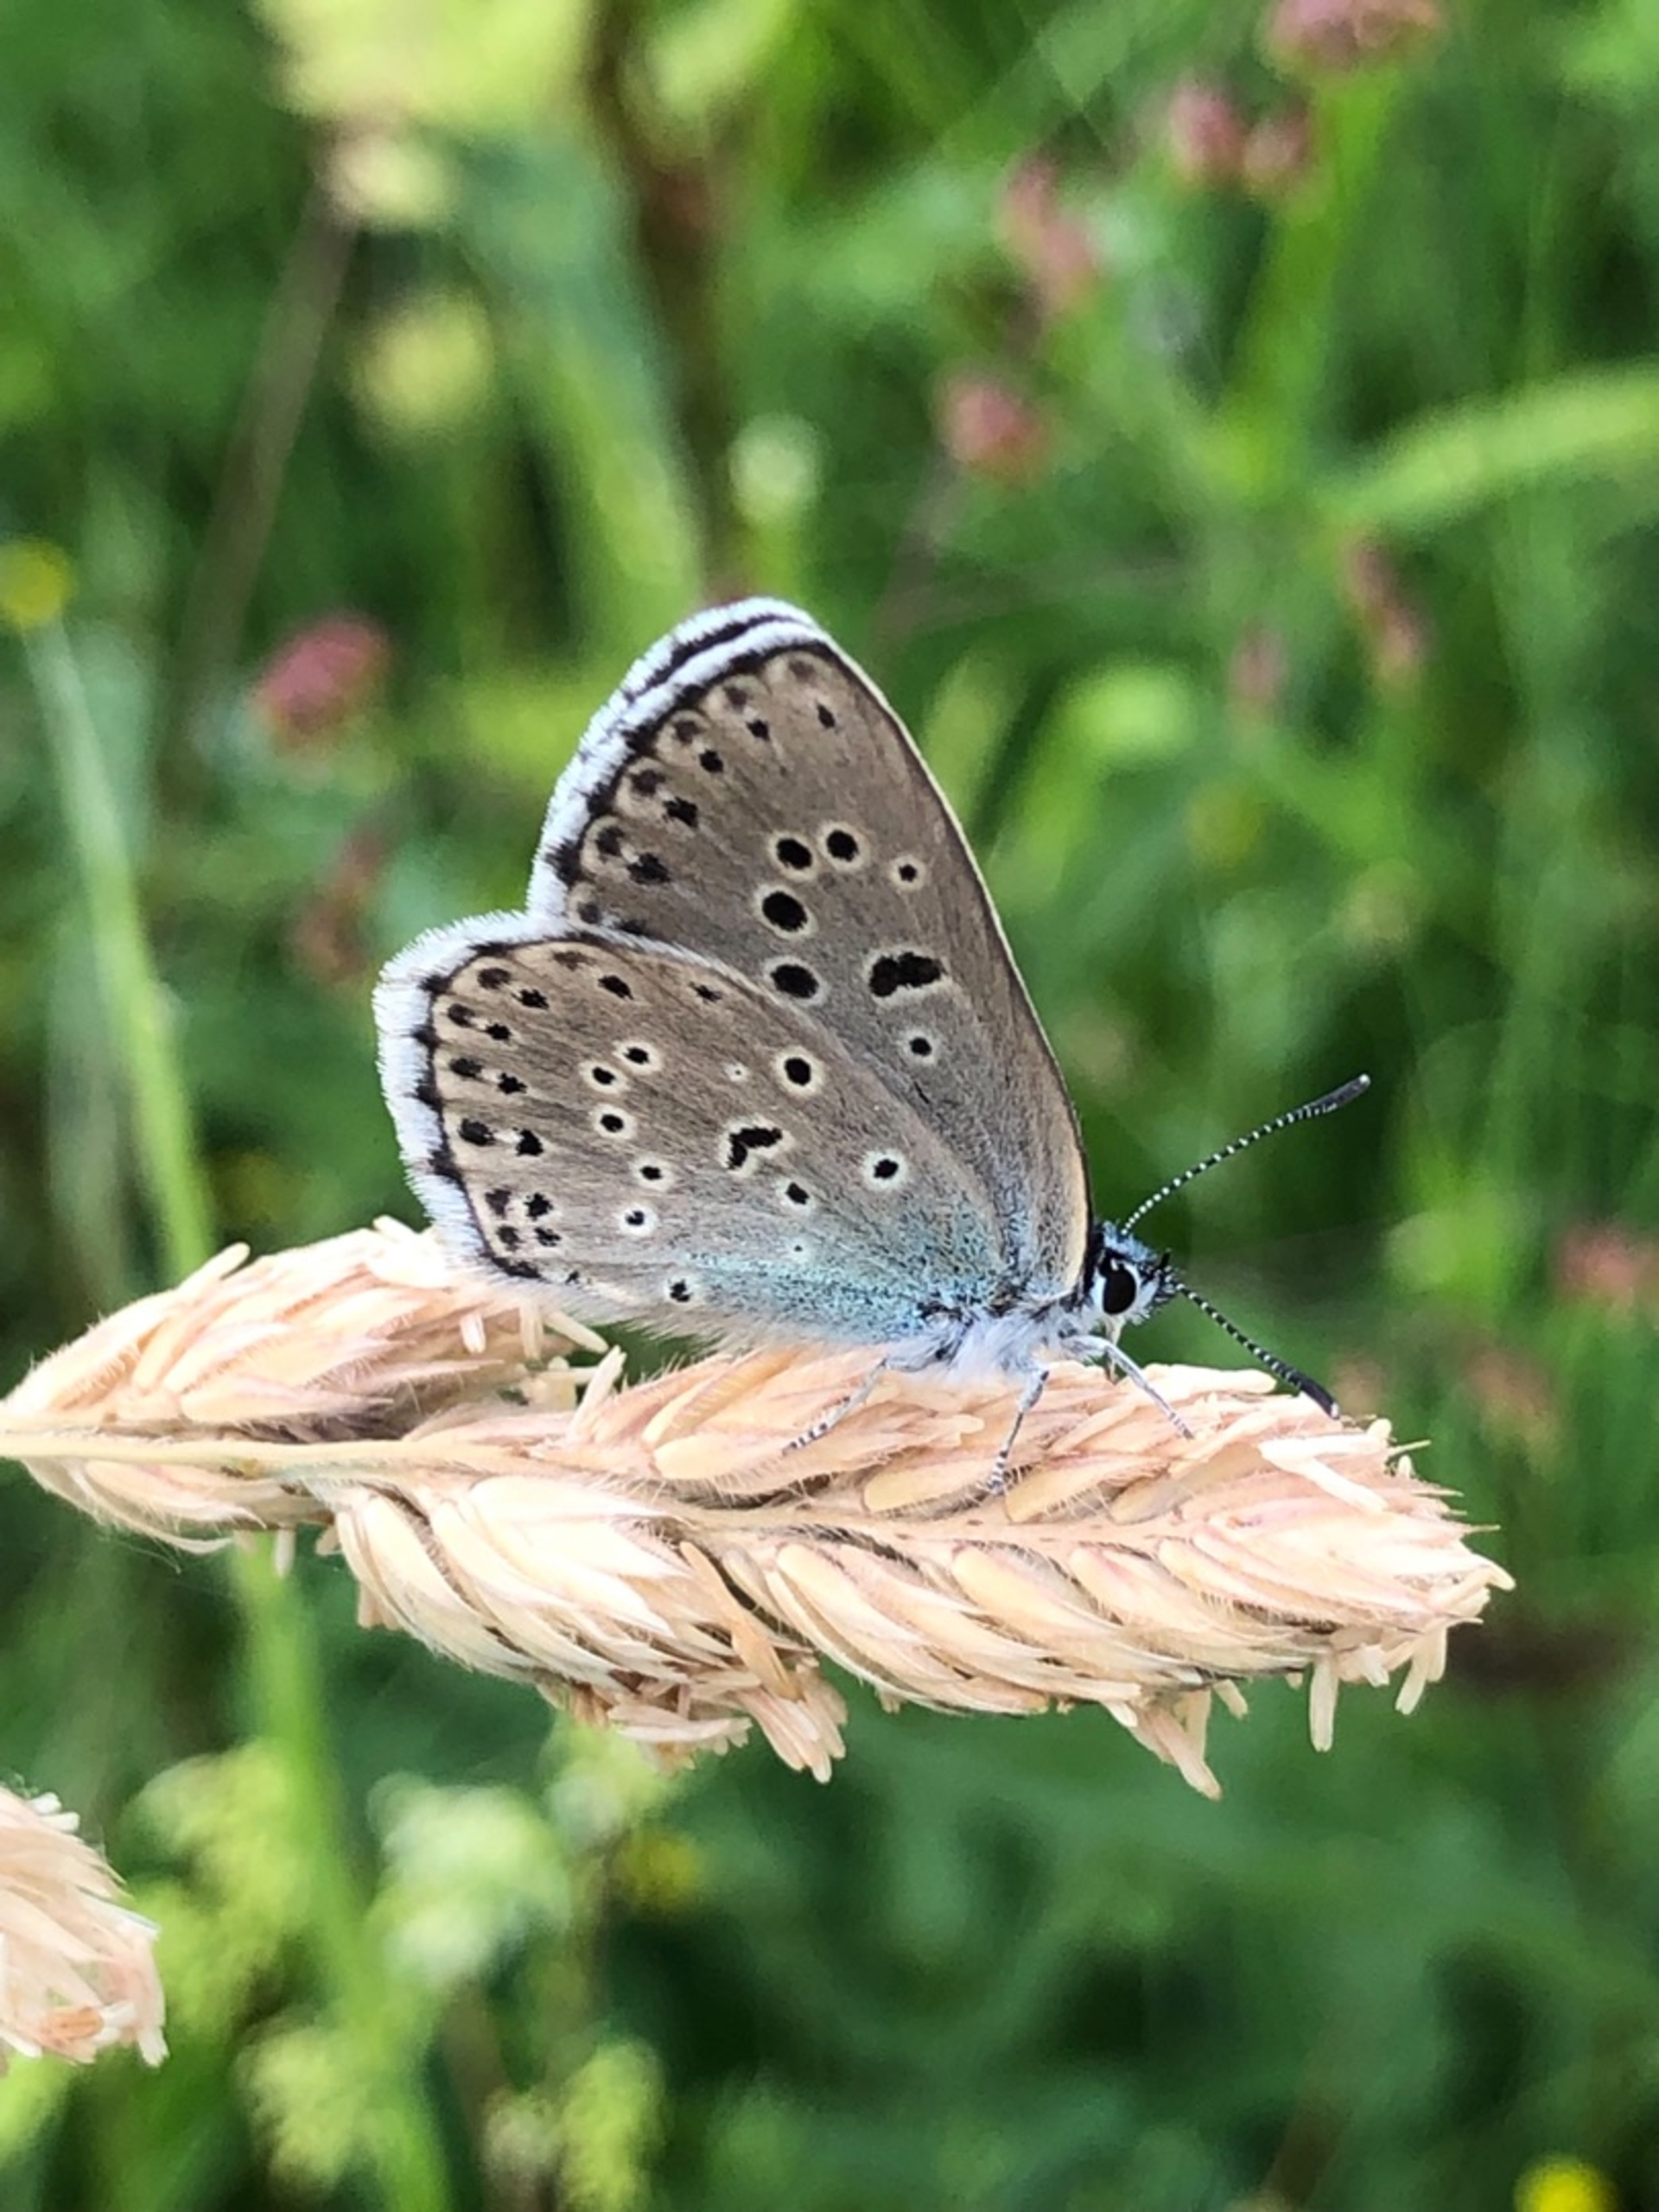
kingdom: Animalia
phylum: Arthropoda
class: Insecta
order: Lepidoptera
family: Lycaenidae
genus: Maculinea
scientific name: Maculinea arion
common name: Sortplettet blåfugl
